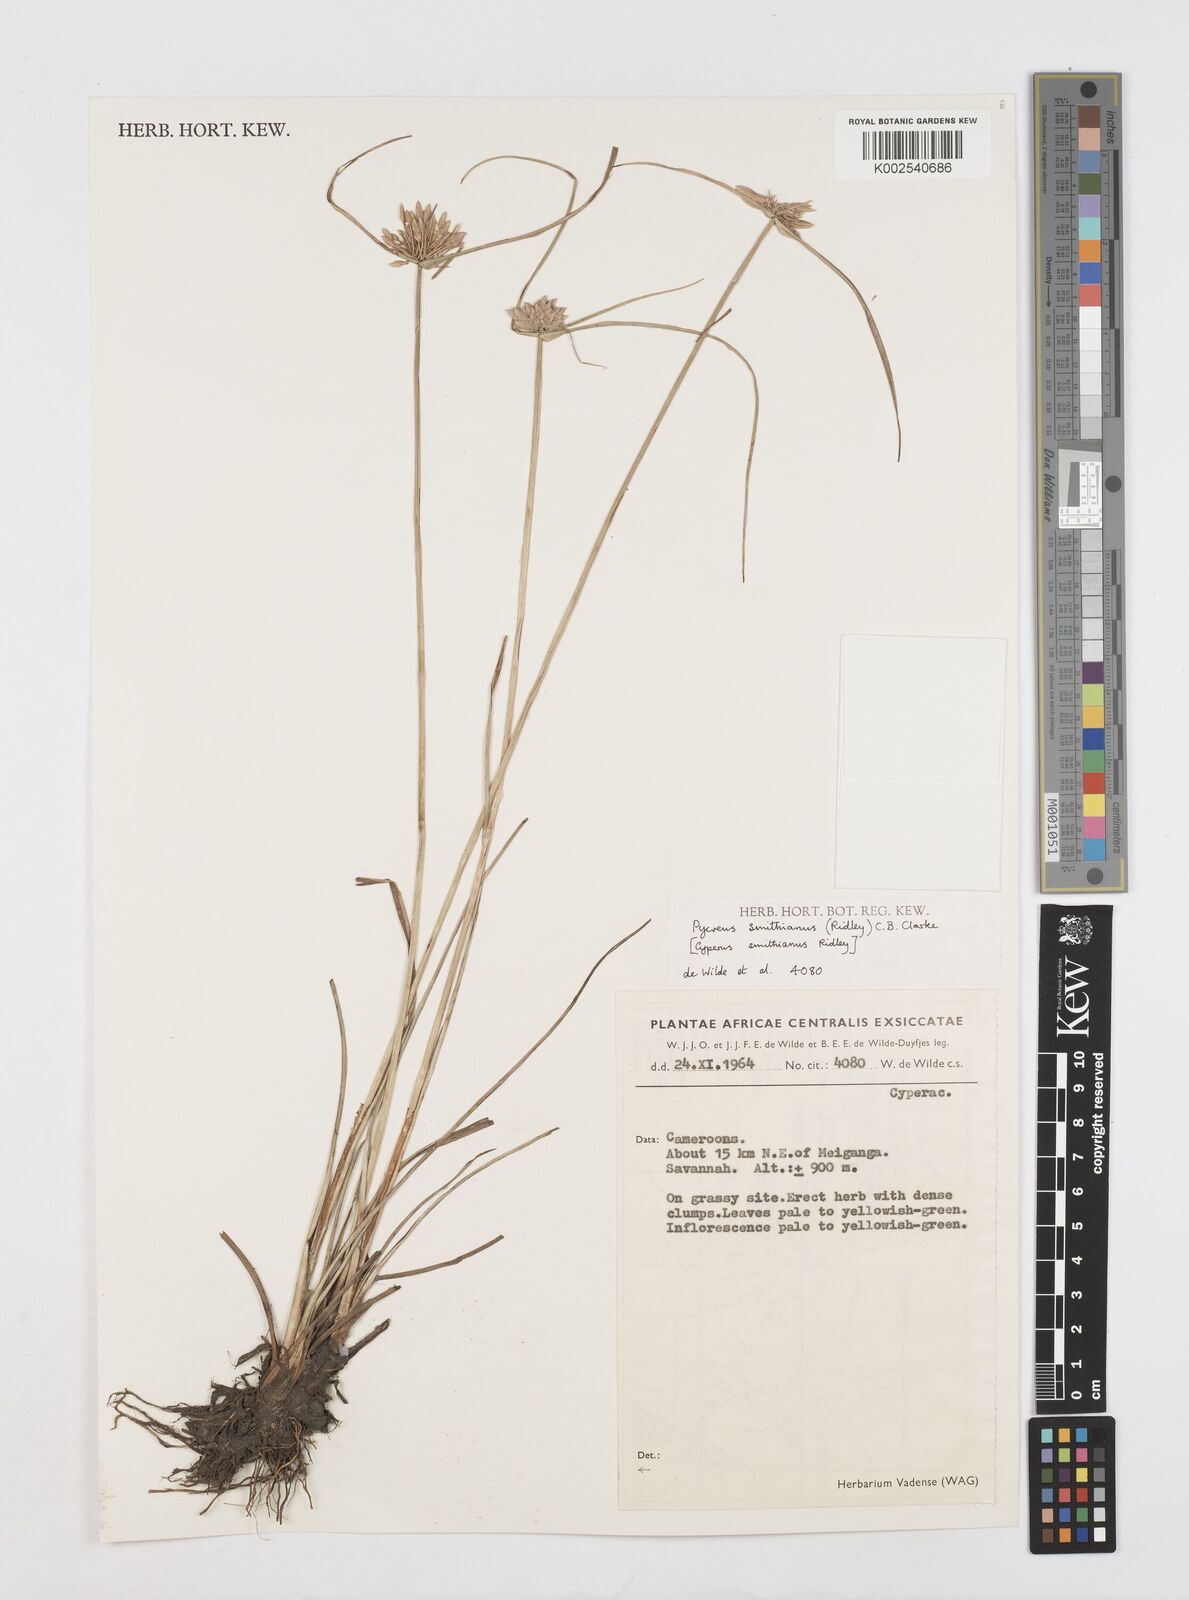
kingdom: Plantae
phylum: Tracheophyta
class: Liliopsida
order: Poales
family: Cyperaceae
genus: Cyperus
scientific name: Cyperus smithianus
